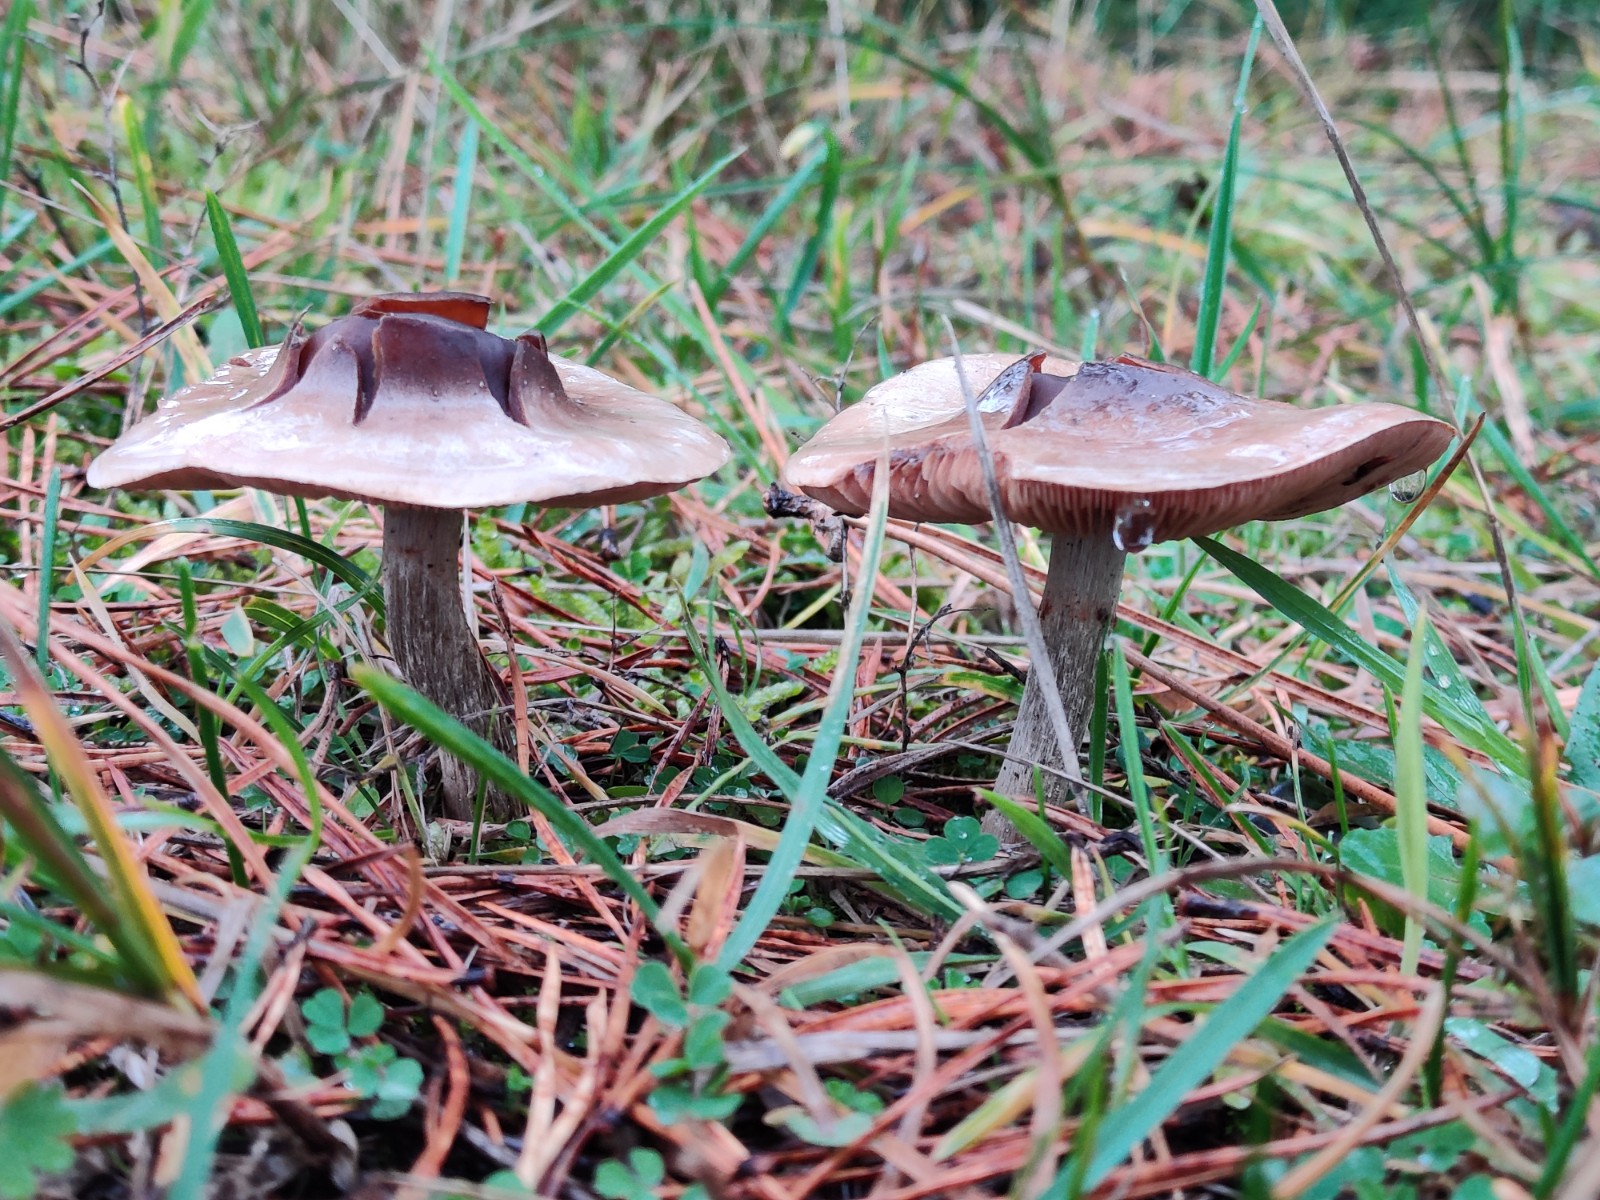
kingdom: Fungi
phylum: Basidiomycota
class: Agaricomycetes
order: Agaricales
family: Cortinariaceae
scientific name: Cortinariaceae
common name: slørhatfamilien
